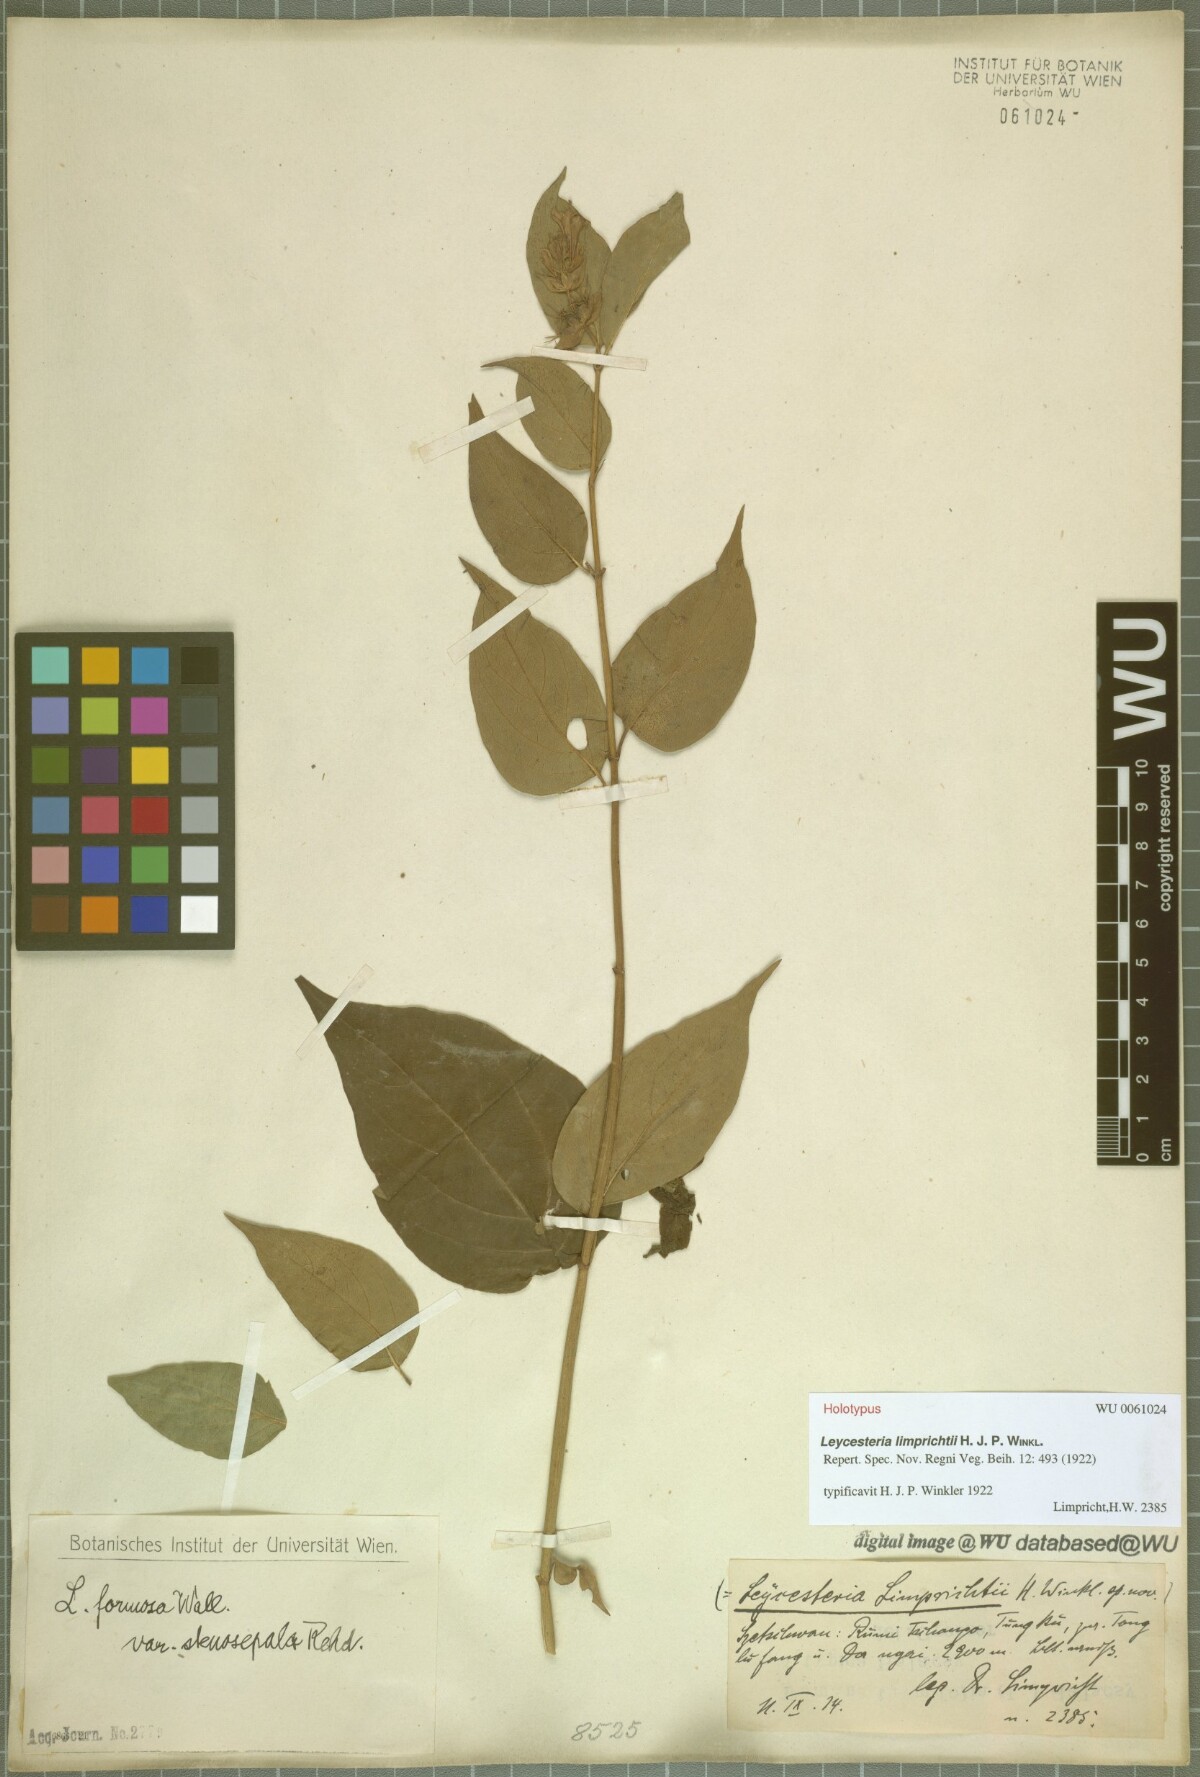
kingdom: Plantae
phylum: Tracheophyta
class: Magnoliopsida
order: Dipsacales
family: Caprifoliaceae
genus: Leycesteria
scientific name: Leycesteria formosa
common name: Himalayan honeysuckle
